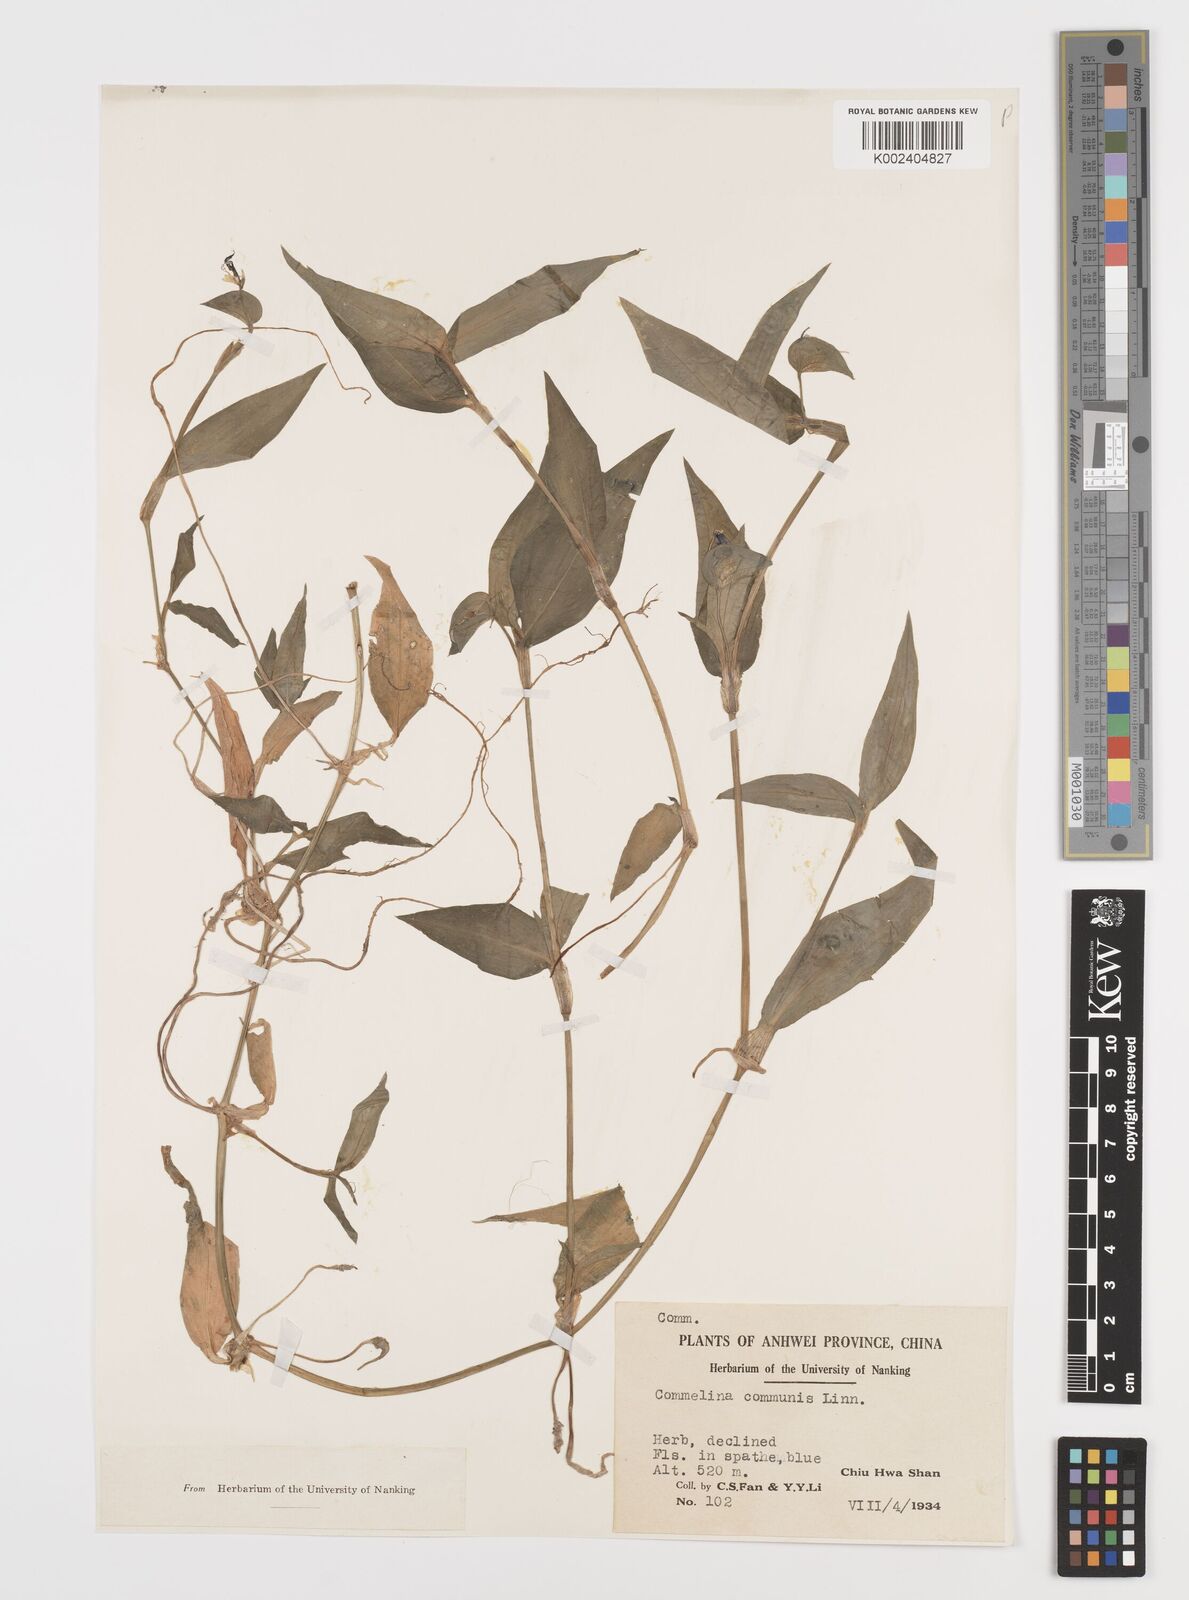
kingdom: Plantae
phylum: Tracheophyta
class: Liliopsida
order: Commelinales
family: Commelinaceae
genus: Commelina
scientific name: Commelina communis
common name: Asiatic dayflower
